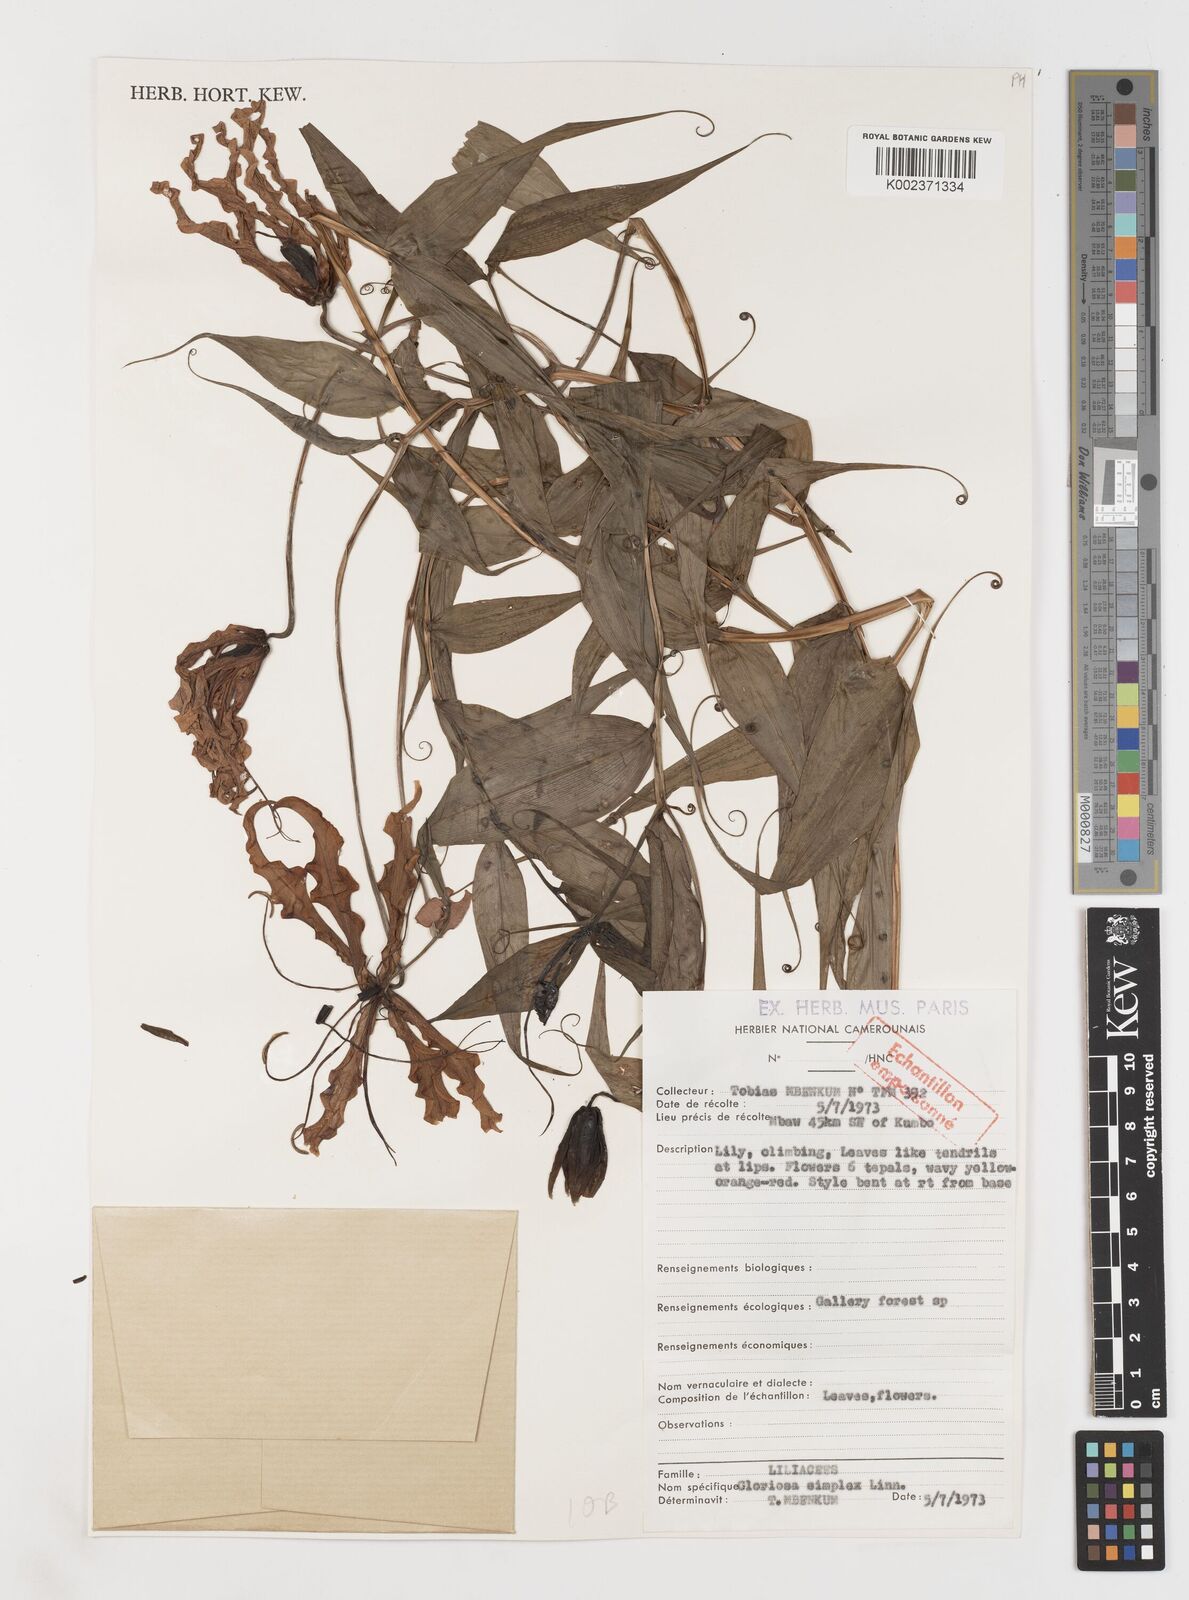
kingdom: Plantae
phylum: Tracheophyta
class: Liliopsida
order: Liliales
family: Colchicaceae
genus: Gloriosa
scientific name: Gloriosa superba
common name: Flame lily
